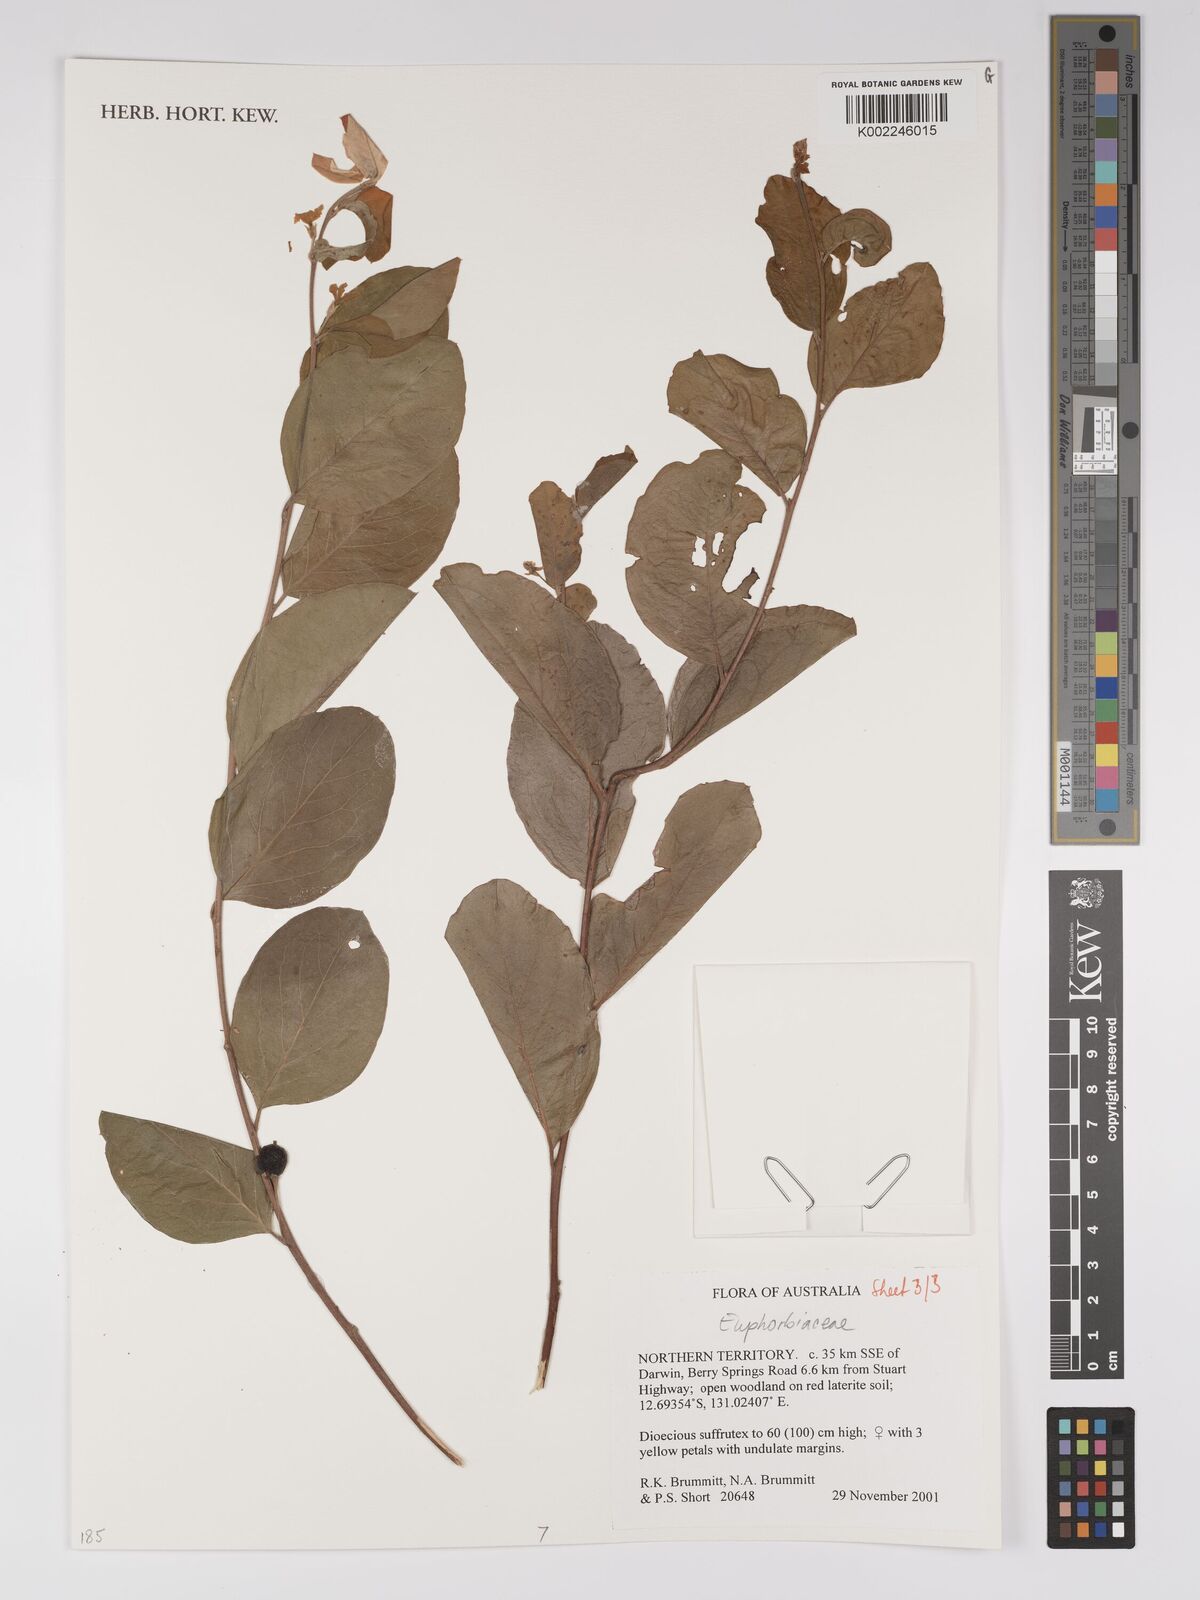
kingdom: Plantae
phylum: Tracheophyta
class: Magnoliopsida
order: Malpighiales
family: Euphorbiaceae
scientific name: Euphorbiaceae
